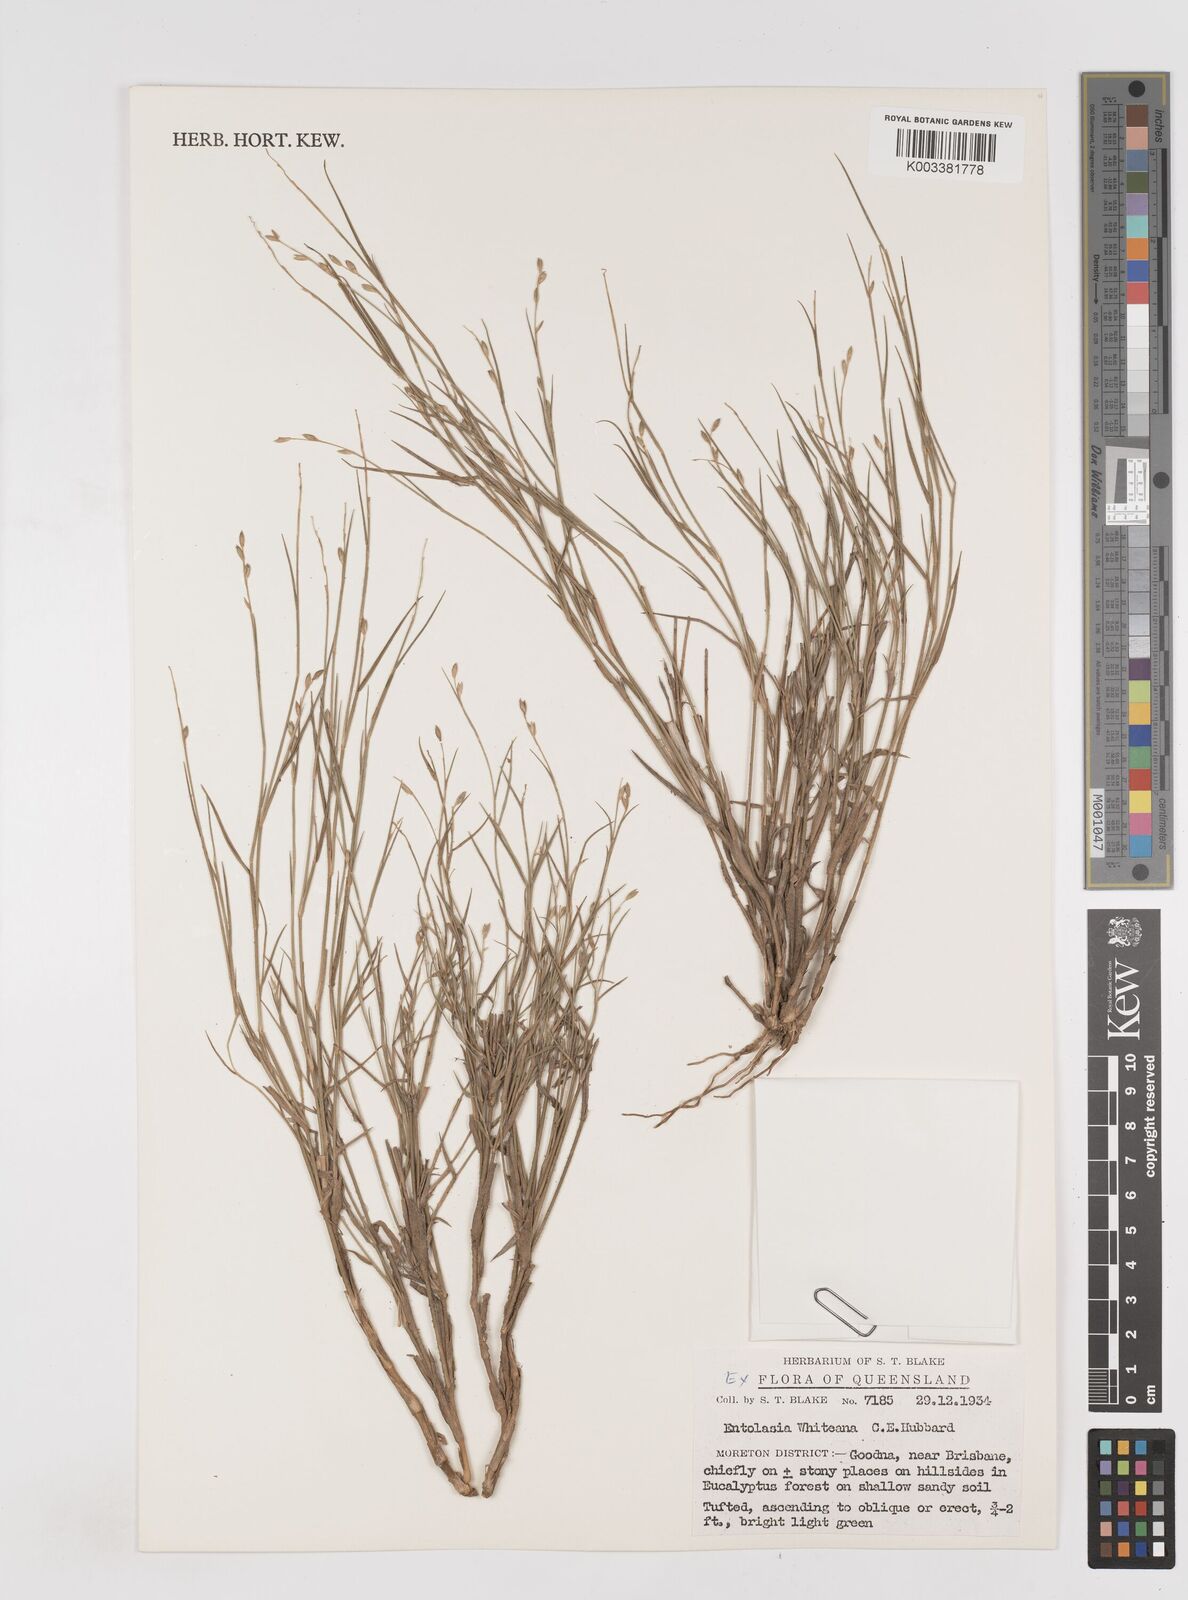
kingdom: Plantae
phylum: Tracheophyta
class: Liliopsida
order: Poales
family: Poaceae
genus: Entolasia
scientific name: Entolasia whiteana
